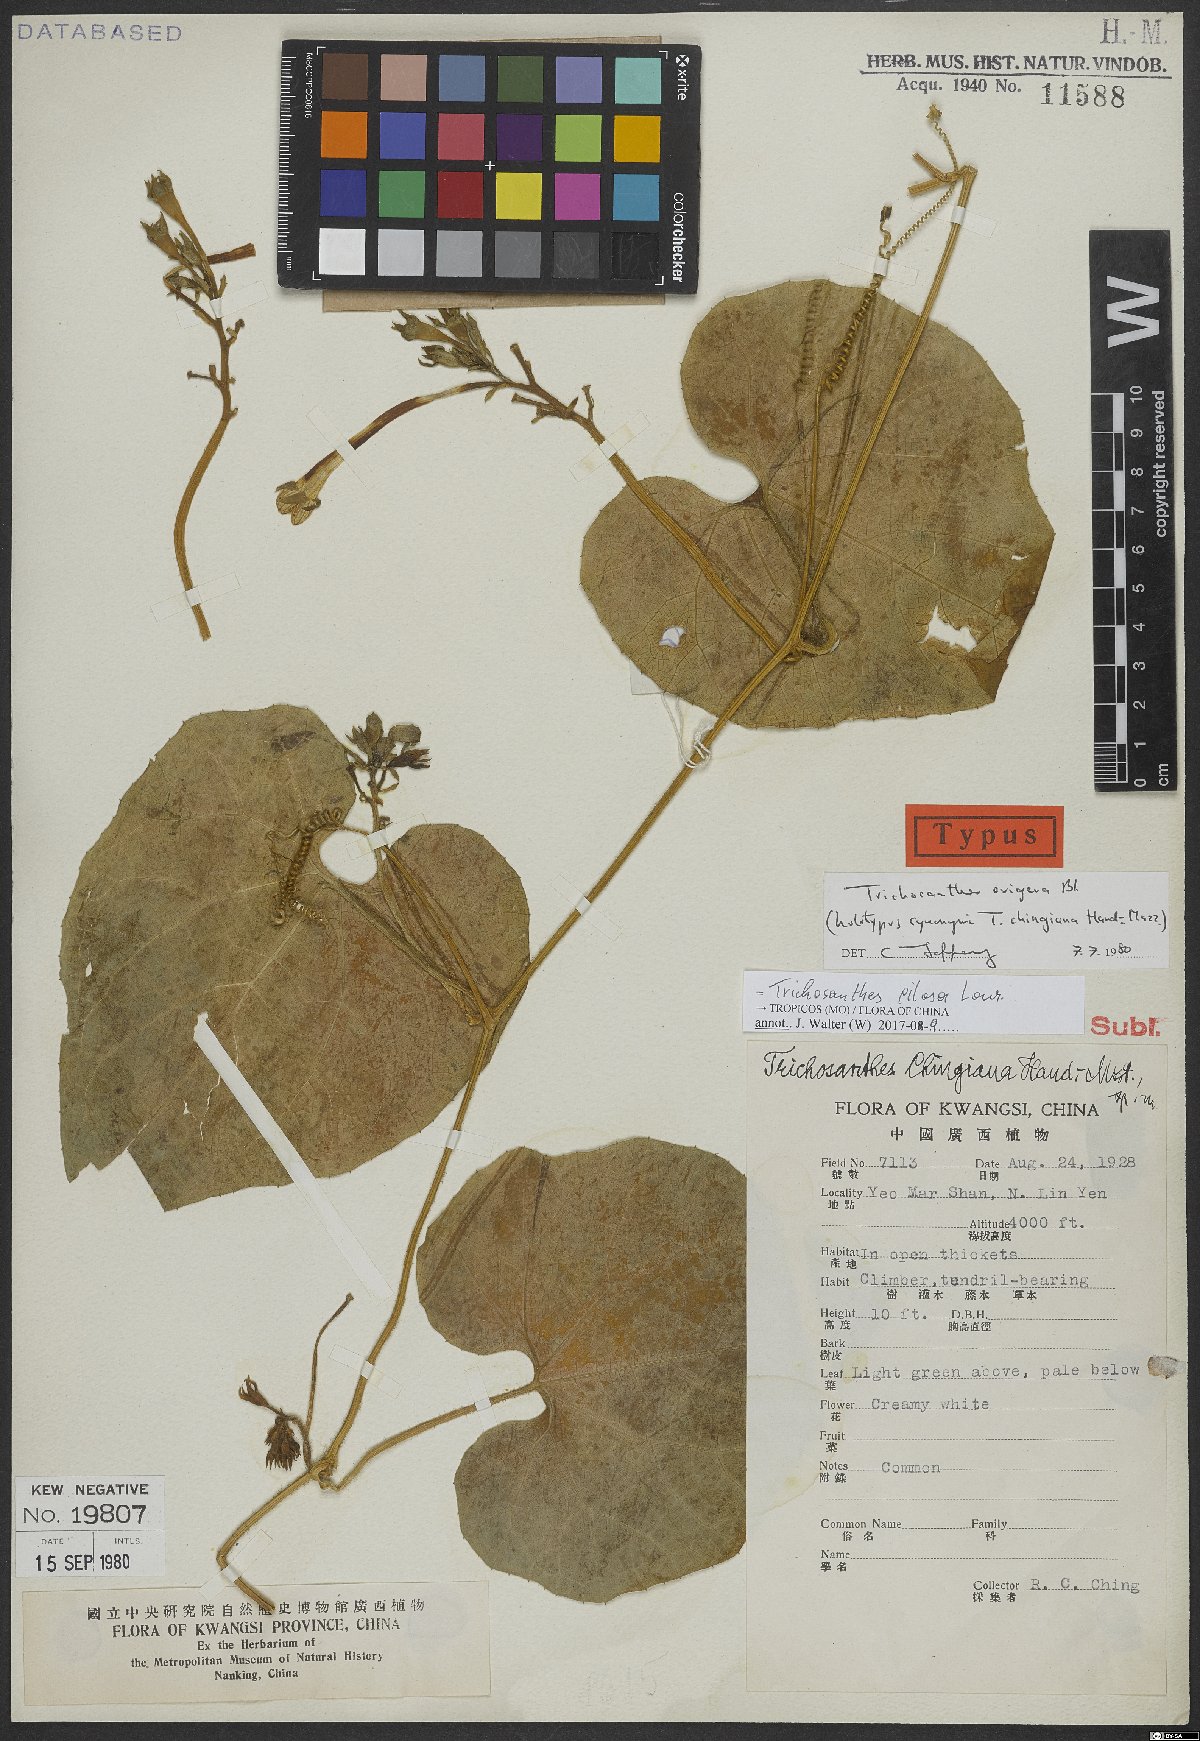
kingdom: Plantae
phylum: Tracheophyta
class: Magnoliopsida
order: Cucurbitales
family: Cucurbitaceae
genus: Trichosanthes
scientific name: Trichosanthes pilosa
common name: Snake gourd
